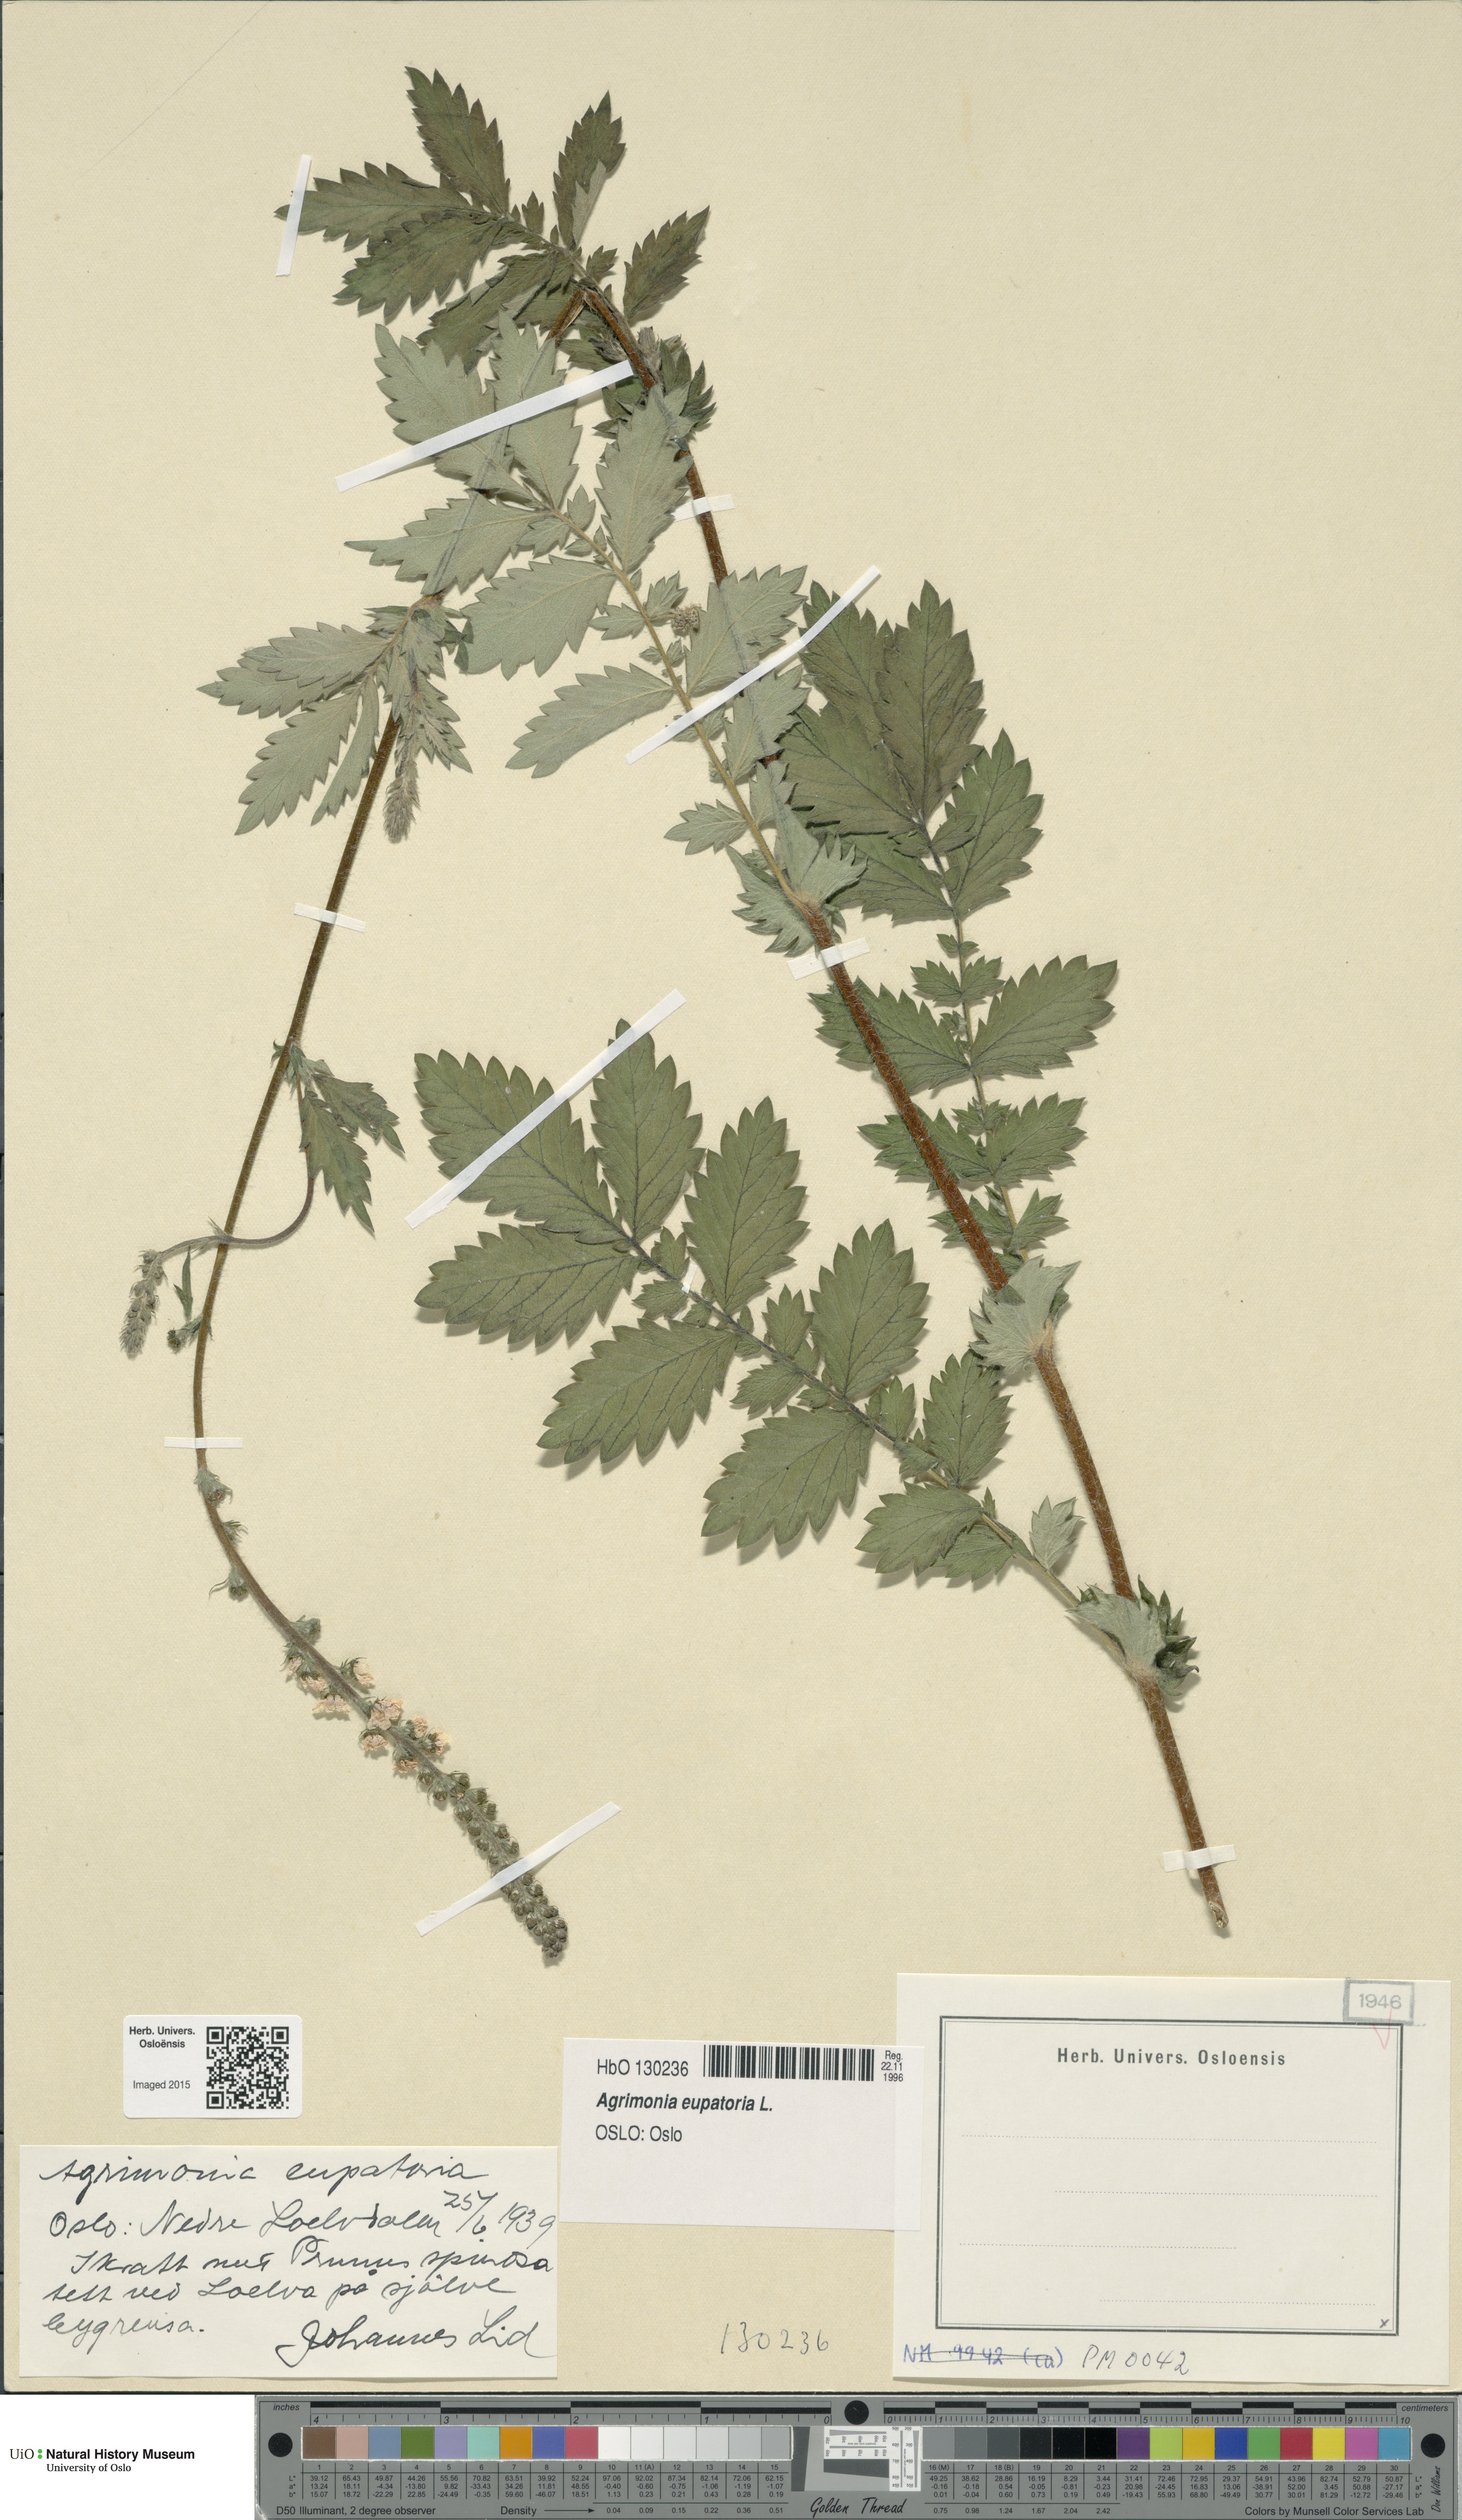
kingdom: Plantae
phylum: Tracheophyta
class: Magnoliopsida
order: Rosales
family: Rosaceae
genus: Agrimonia
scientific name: Agrimonia eupatoria
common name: Agrimony
